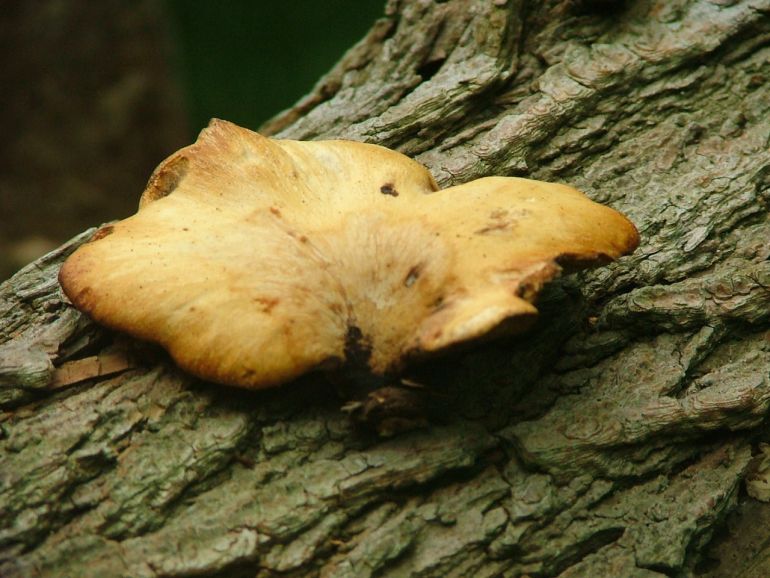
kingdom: Fungi
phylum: Basidiomycota
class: Agaricomycetes
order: Polyporales
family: Polyporaceae
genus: Cerioporus
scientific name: Cerioporus varius
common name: foranderlig stilkporesvamp
